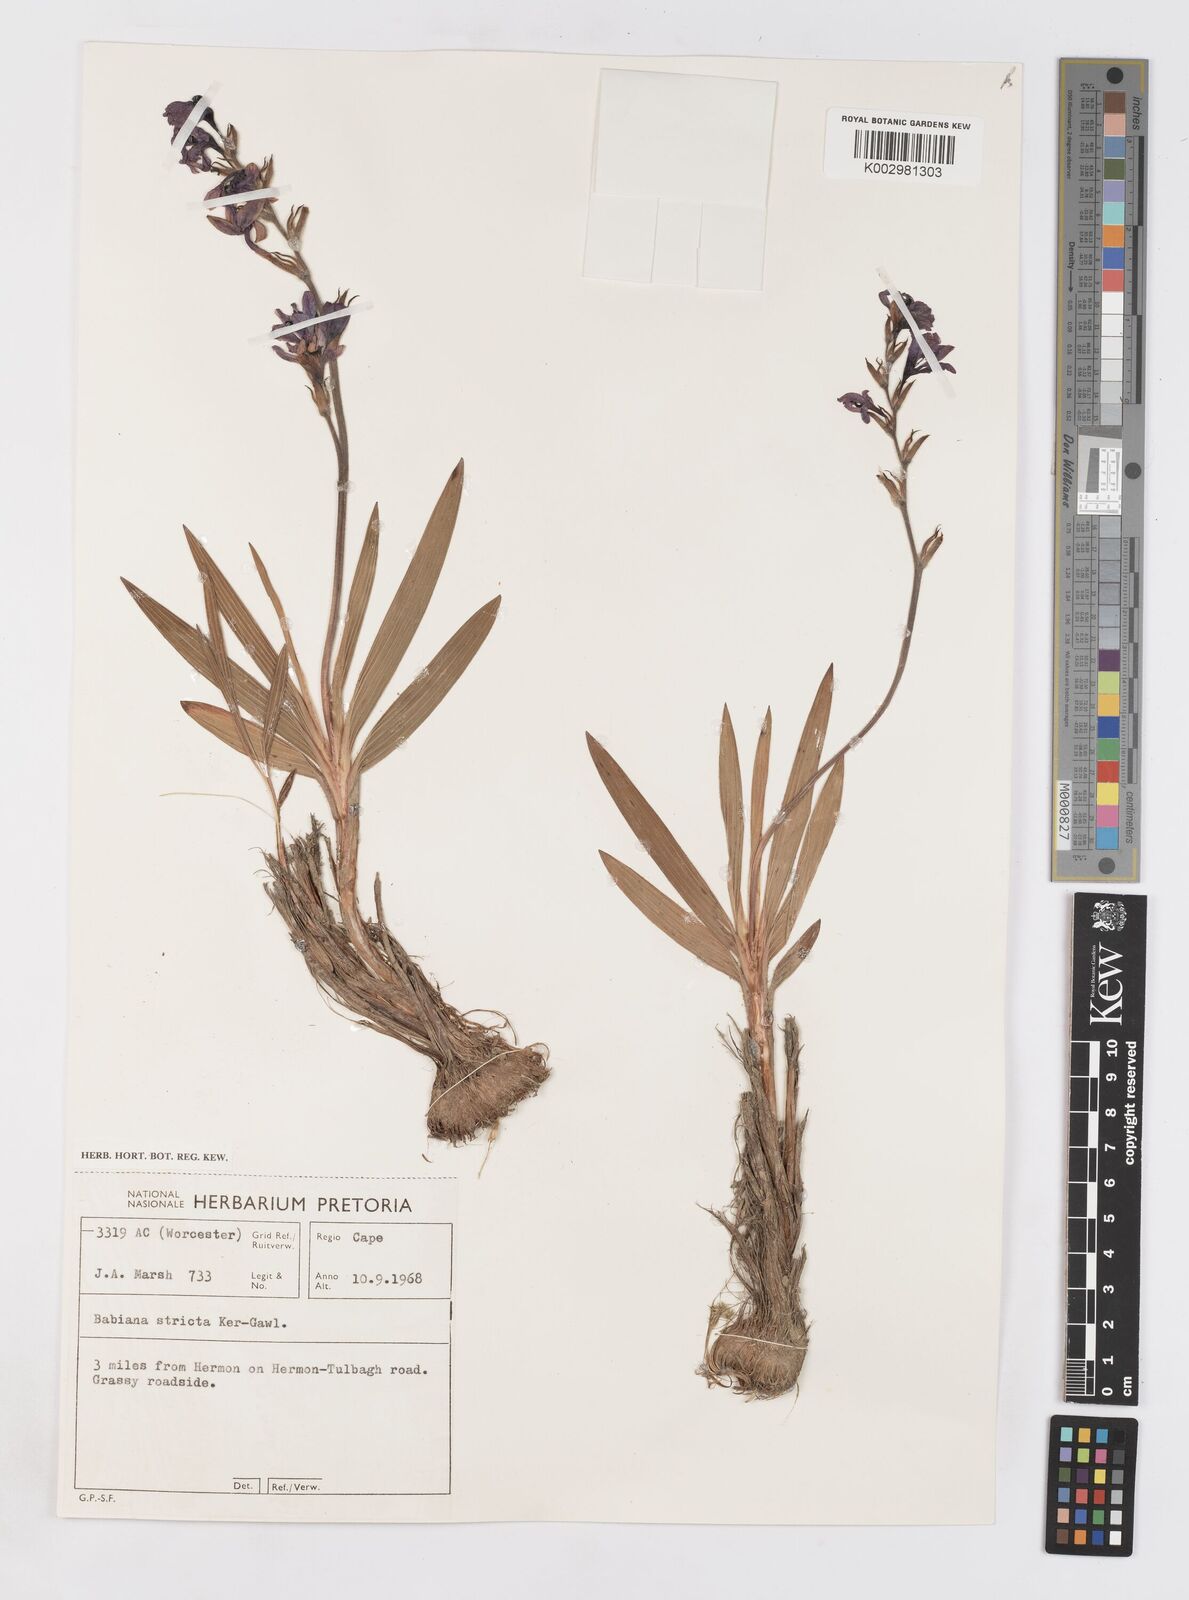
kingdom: Plantae
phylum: Tracheophyta
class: Liliopsida
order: Asparagales
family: Iridaceae
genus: Babiana
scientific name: Babiana nervosa
